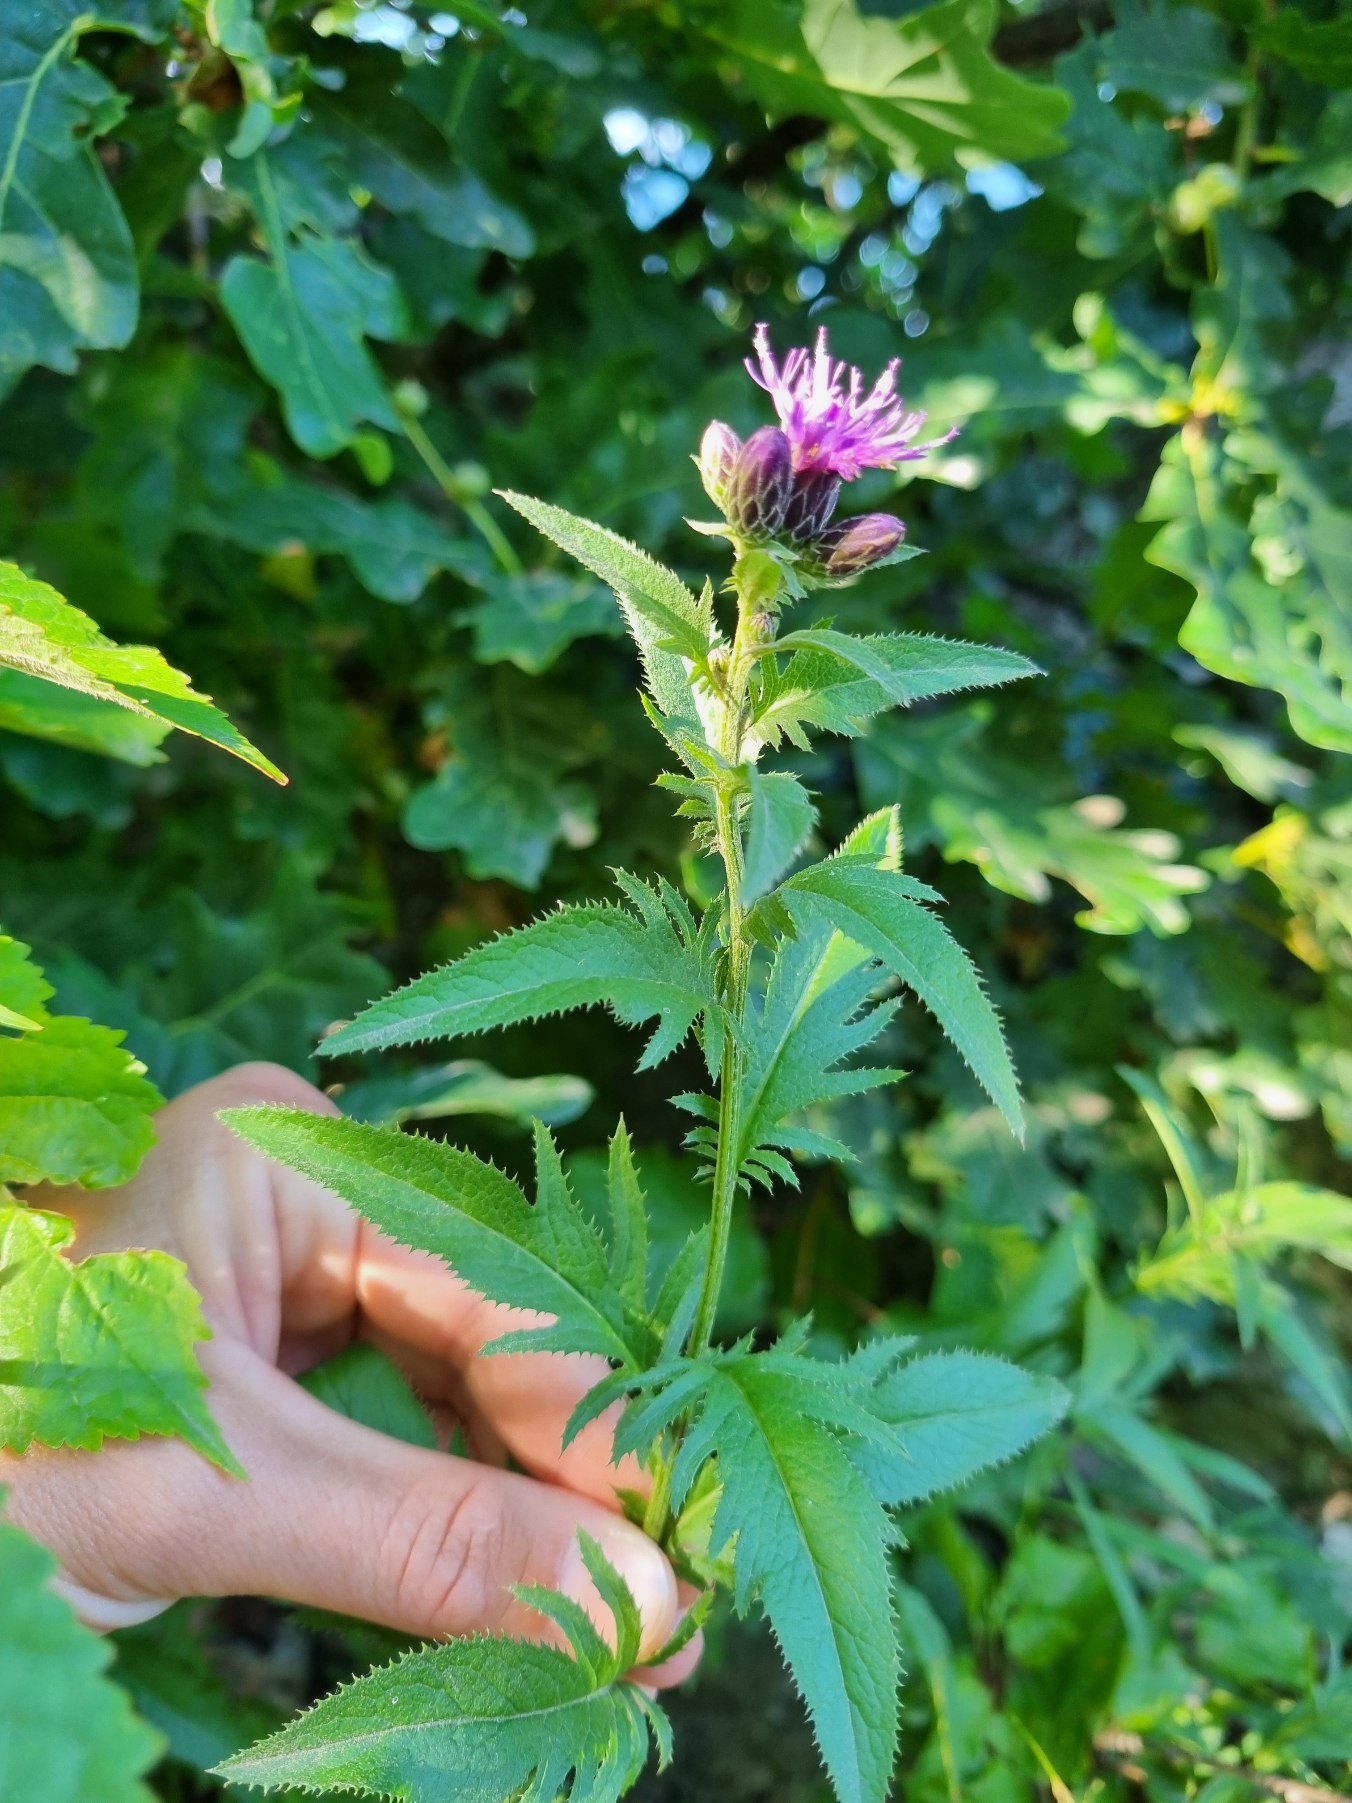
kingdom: Plantae
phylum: Tracheophyta
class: Magnoliopsida
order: Asterales
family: Asteraceae
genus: Serratula
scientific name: Serratula tinctoria
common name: Eng-skær
